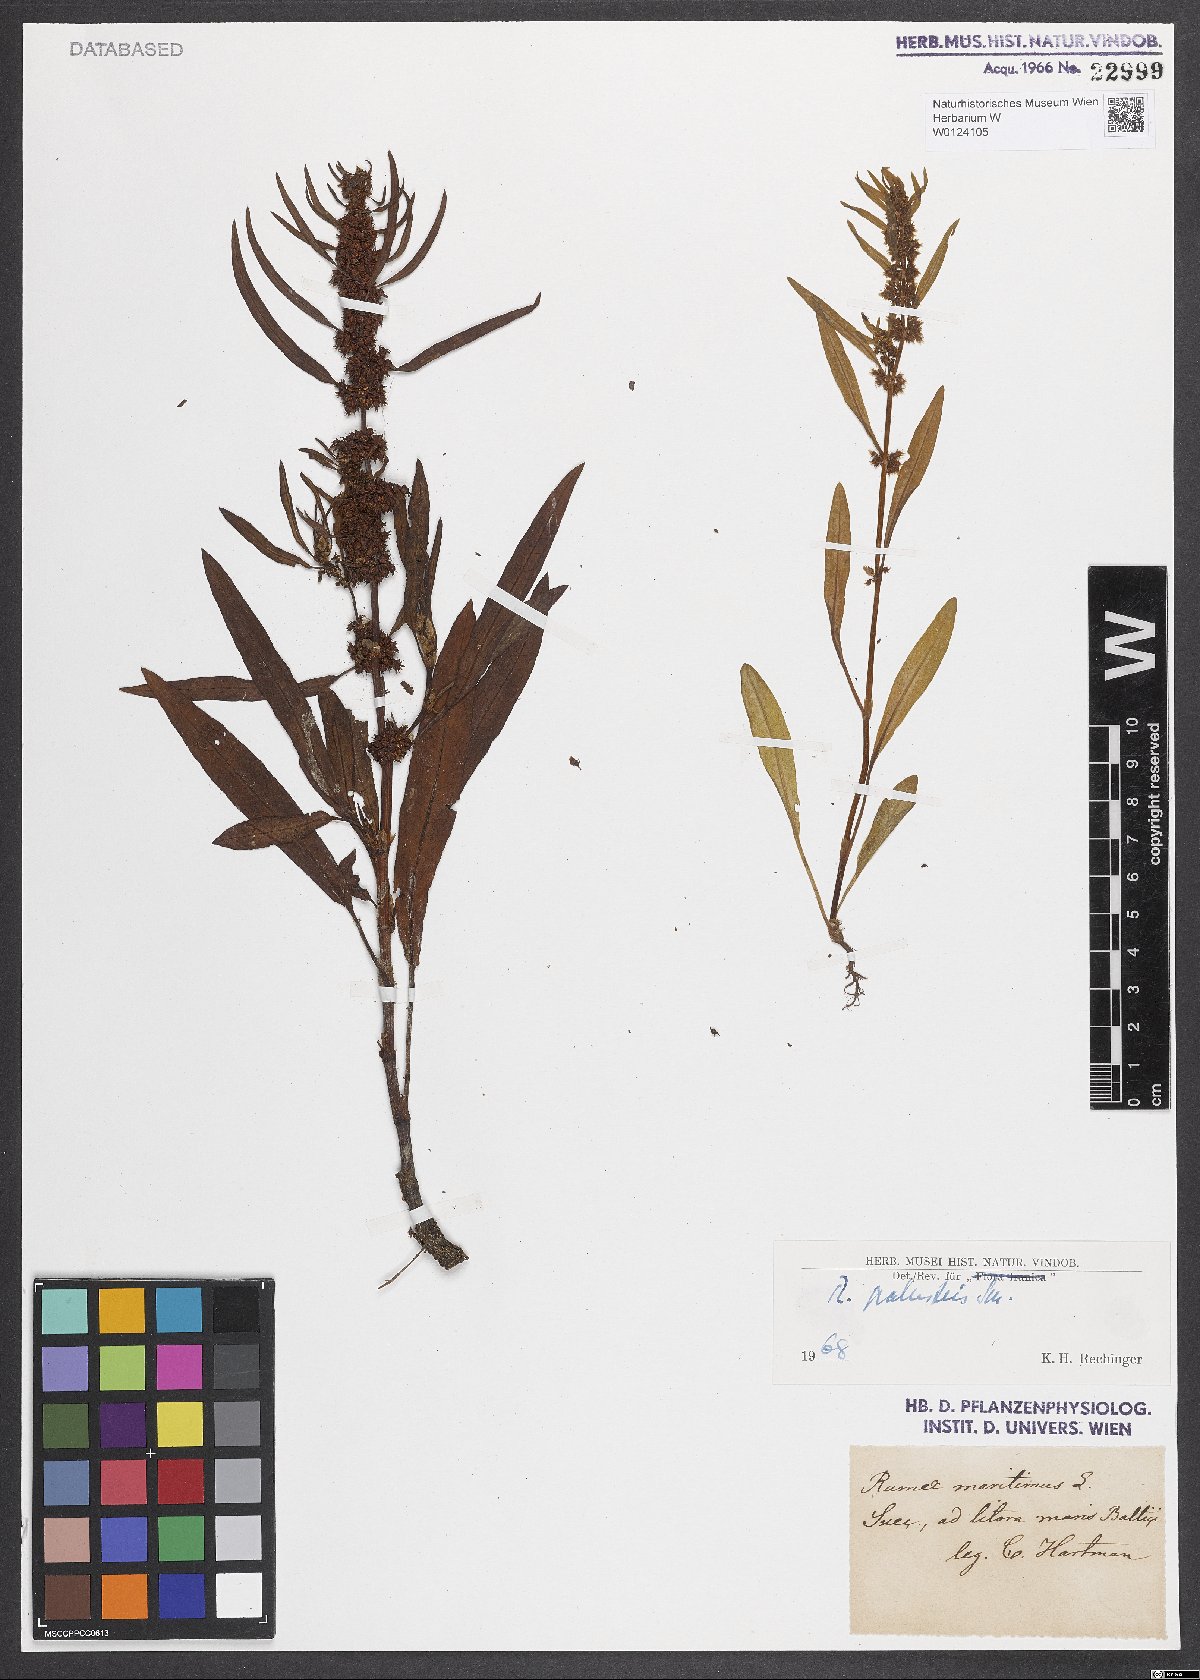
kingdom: Plantae
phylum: Tracheophyta
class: Magnoliopsida
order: Caryophyllales
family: Polygonaceae
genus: Rumex
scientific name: Rumex palustris
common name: Marsh dock
